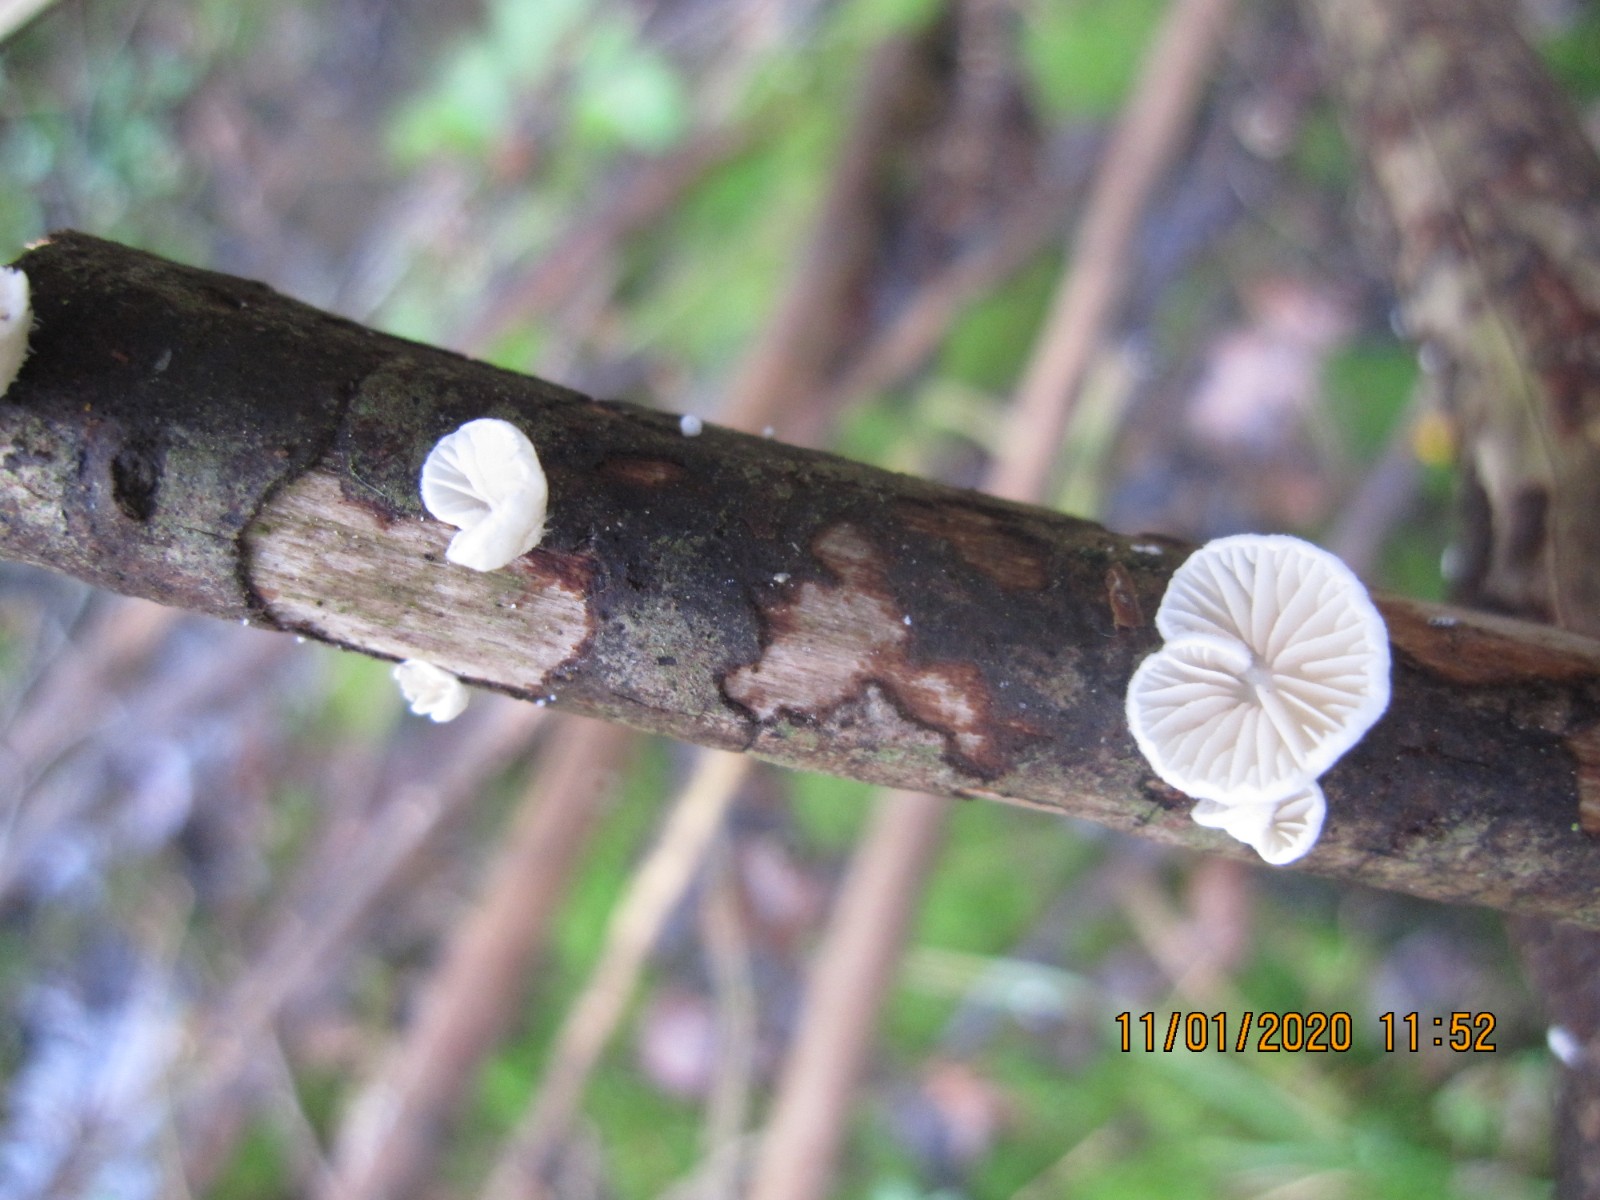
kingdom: Fungi
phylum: Basidiomycota
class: Agaricomycetes
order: Agaricales
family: Crepidotaceae
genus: Crepidotus
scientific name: Crepidotus cesatii
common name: almindelig muslingesvamp
